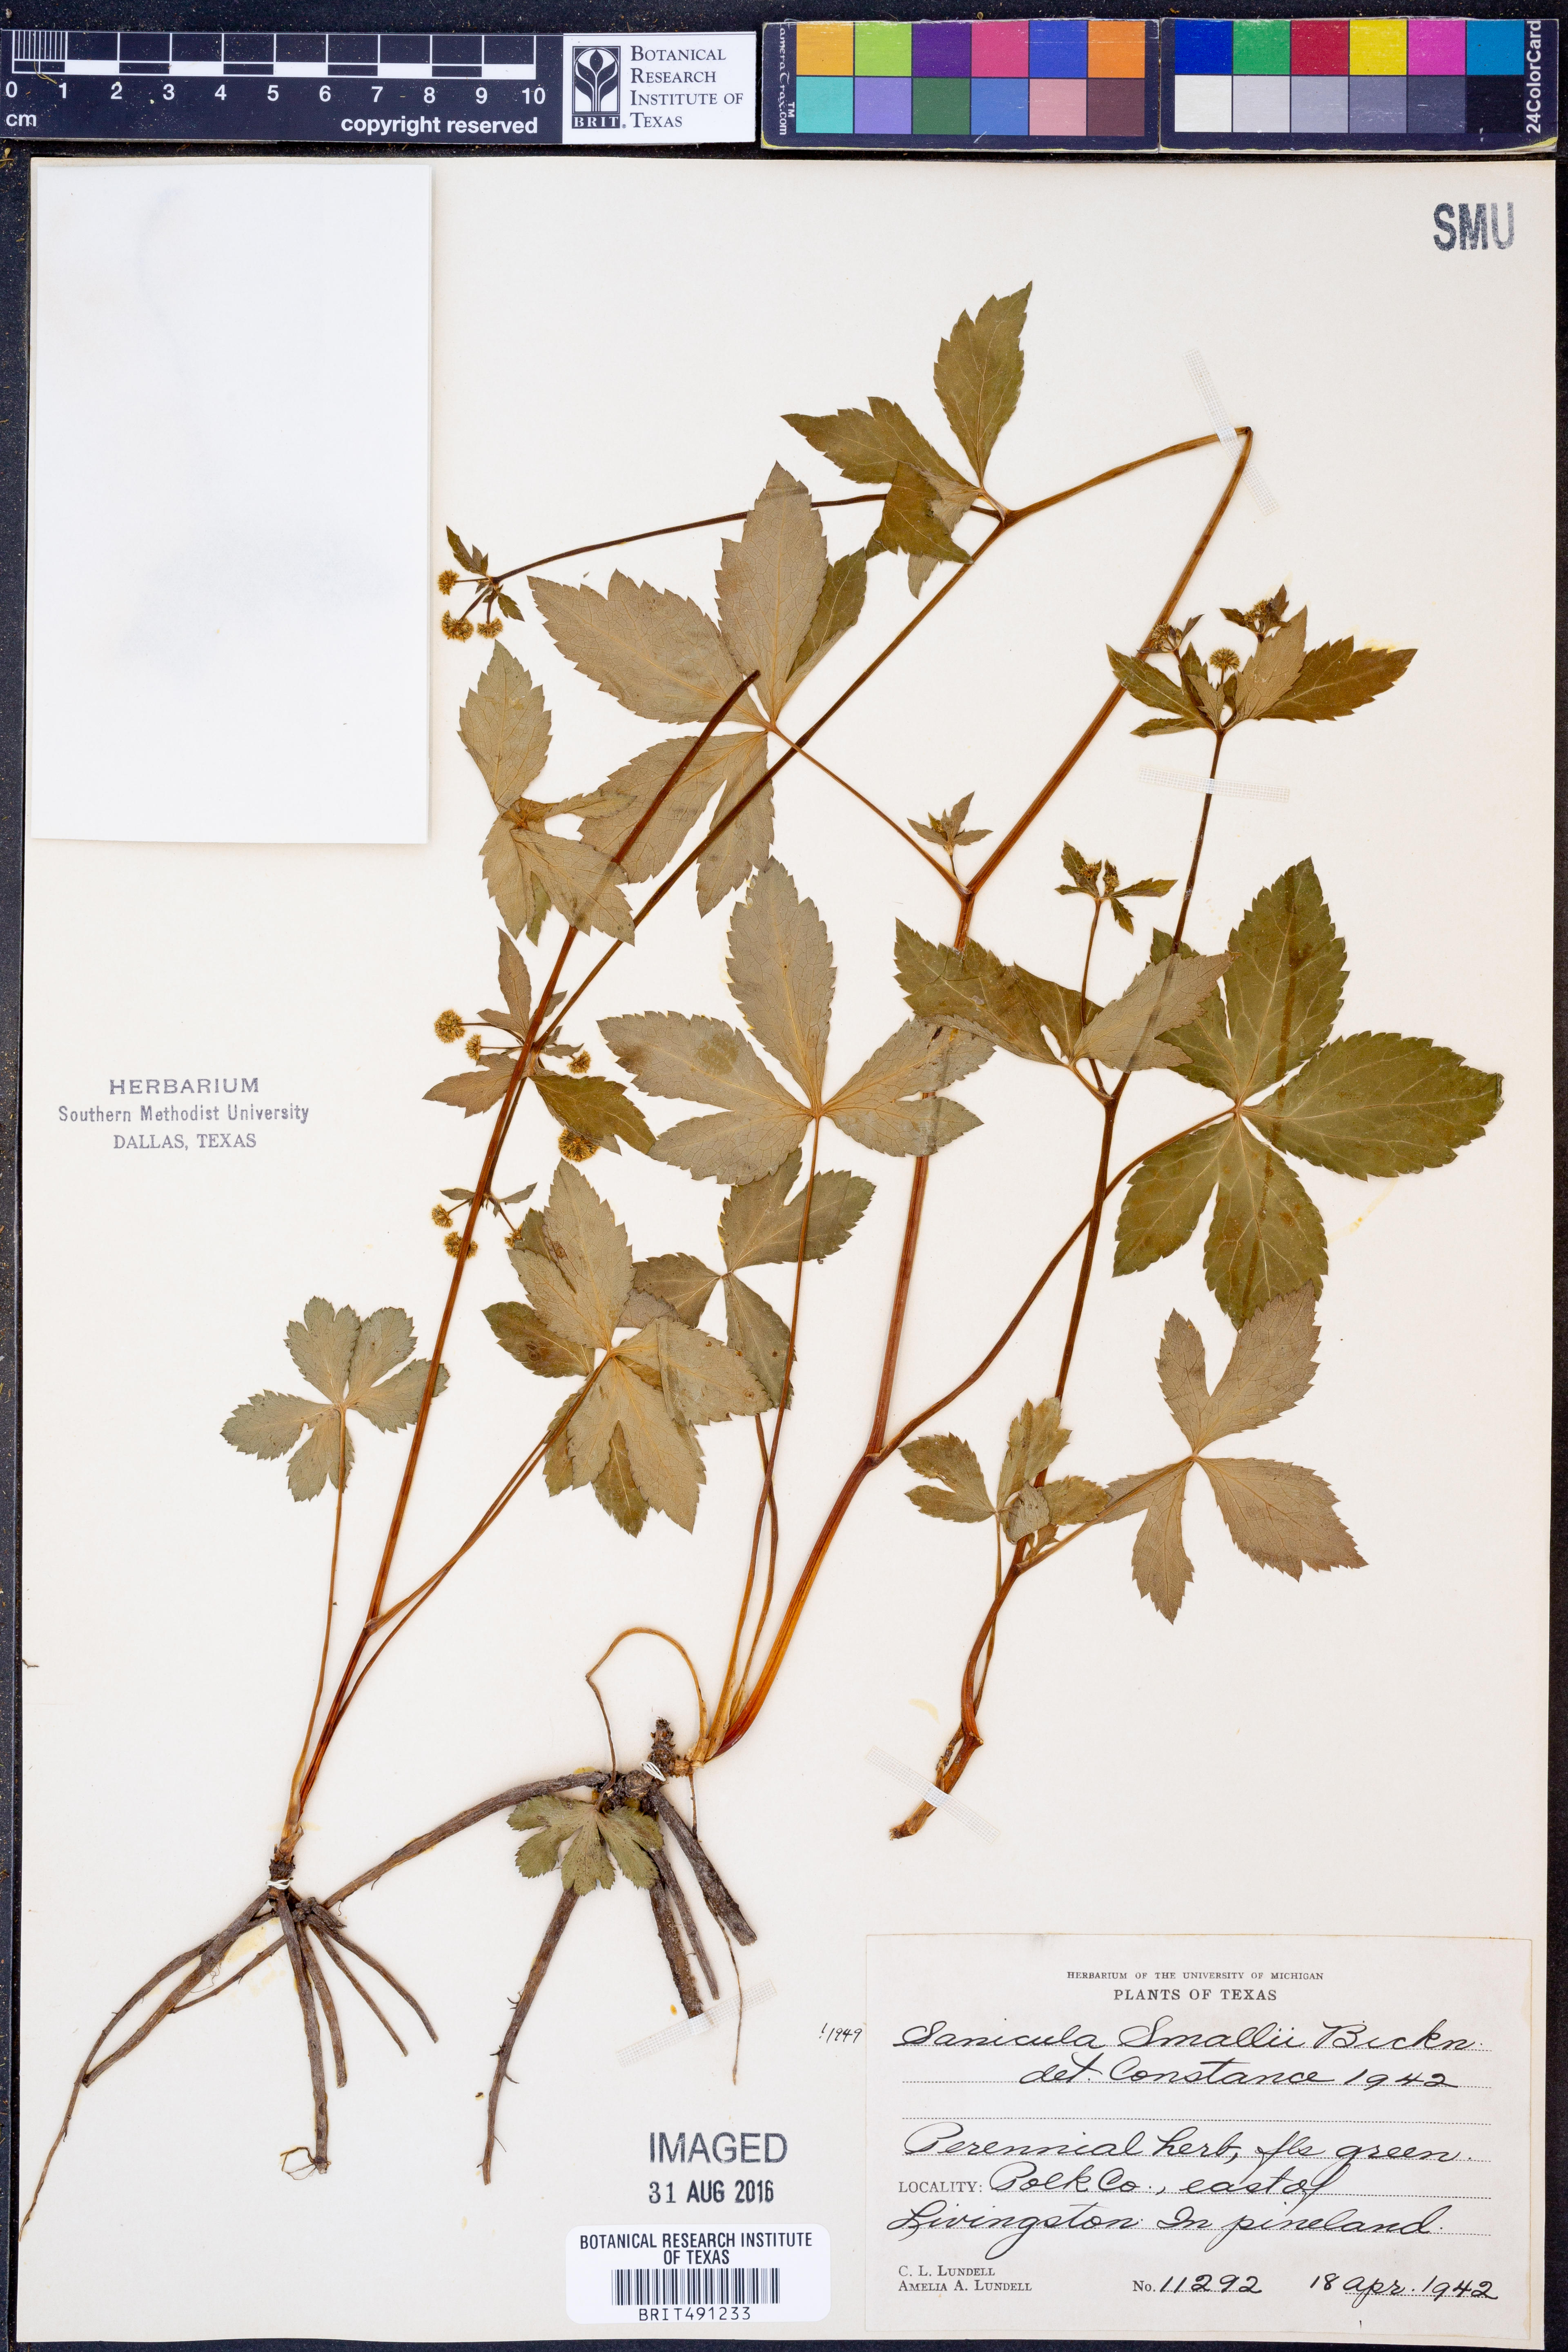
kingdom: Plantae
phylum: Tracheophyta
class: Magnoliopsida
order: Apiales
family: Apiaceae
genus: Sanicula
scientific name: Sanicula smallii
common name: Small's black snakeroot
